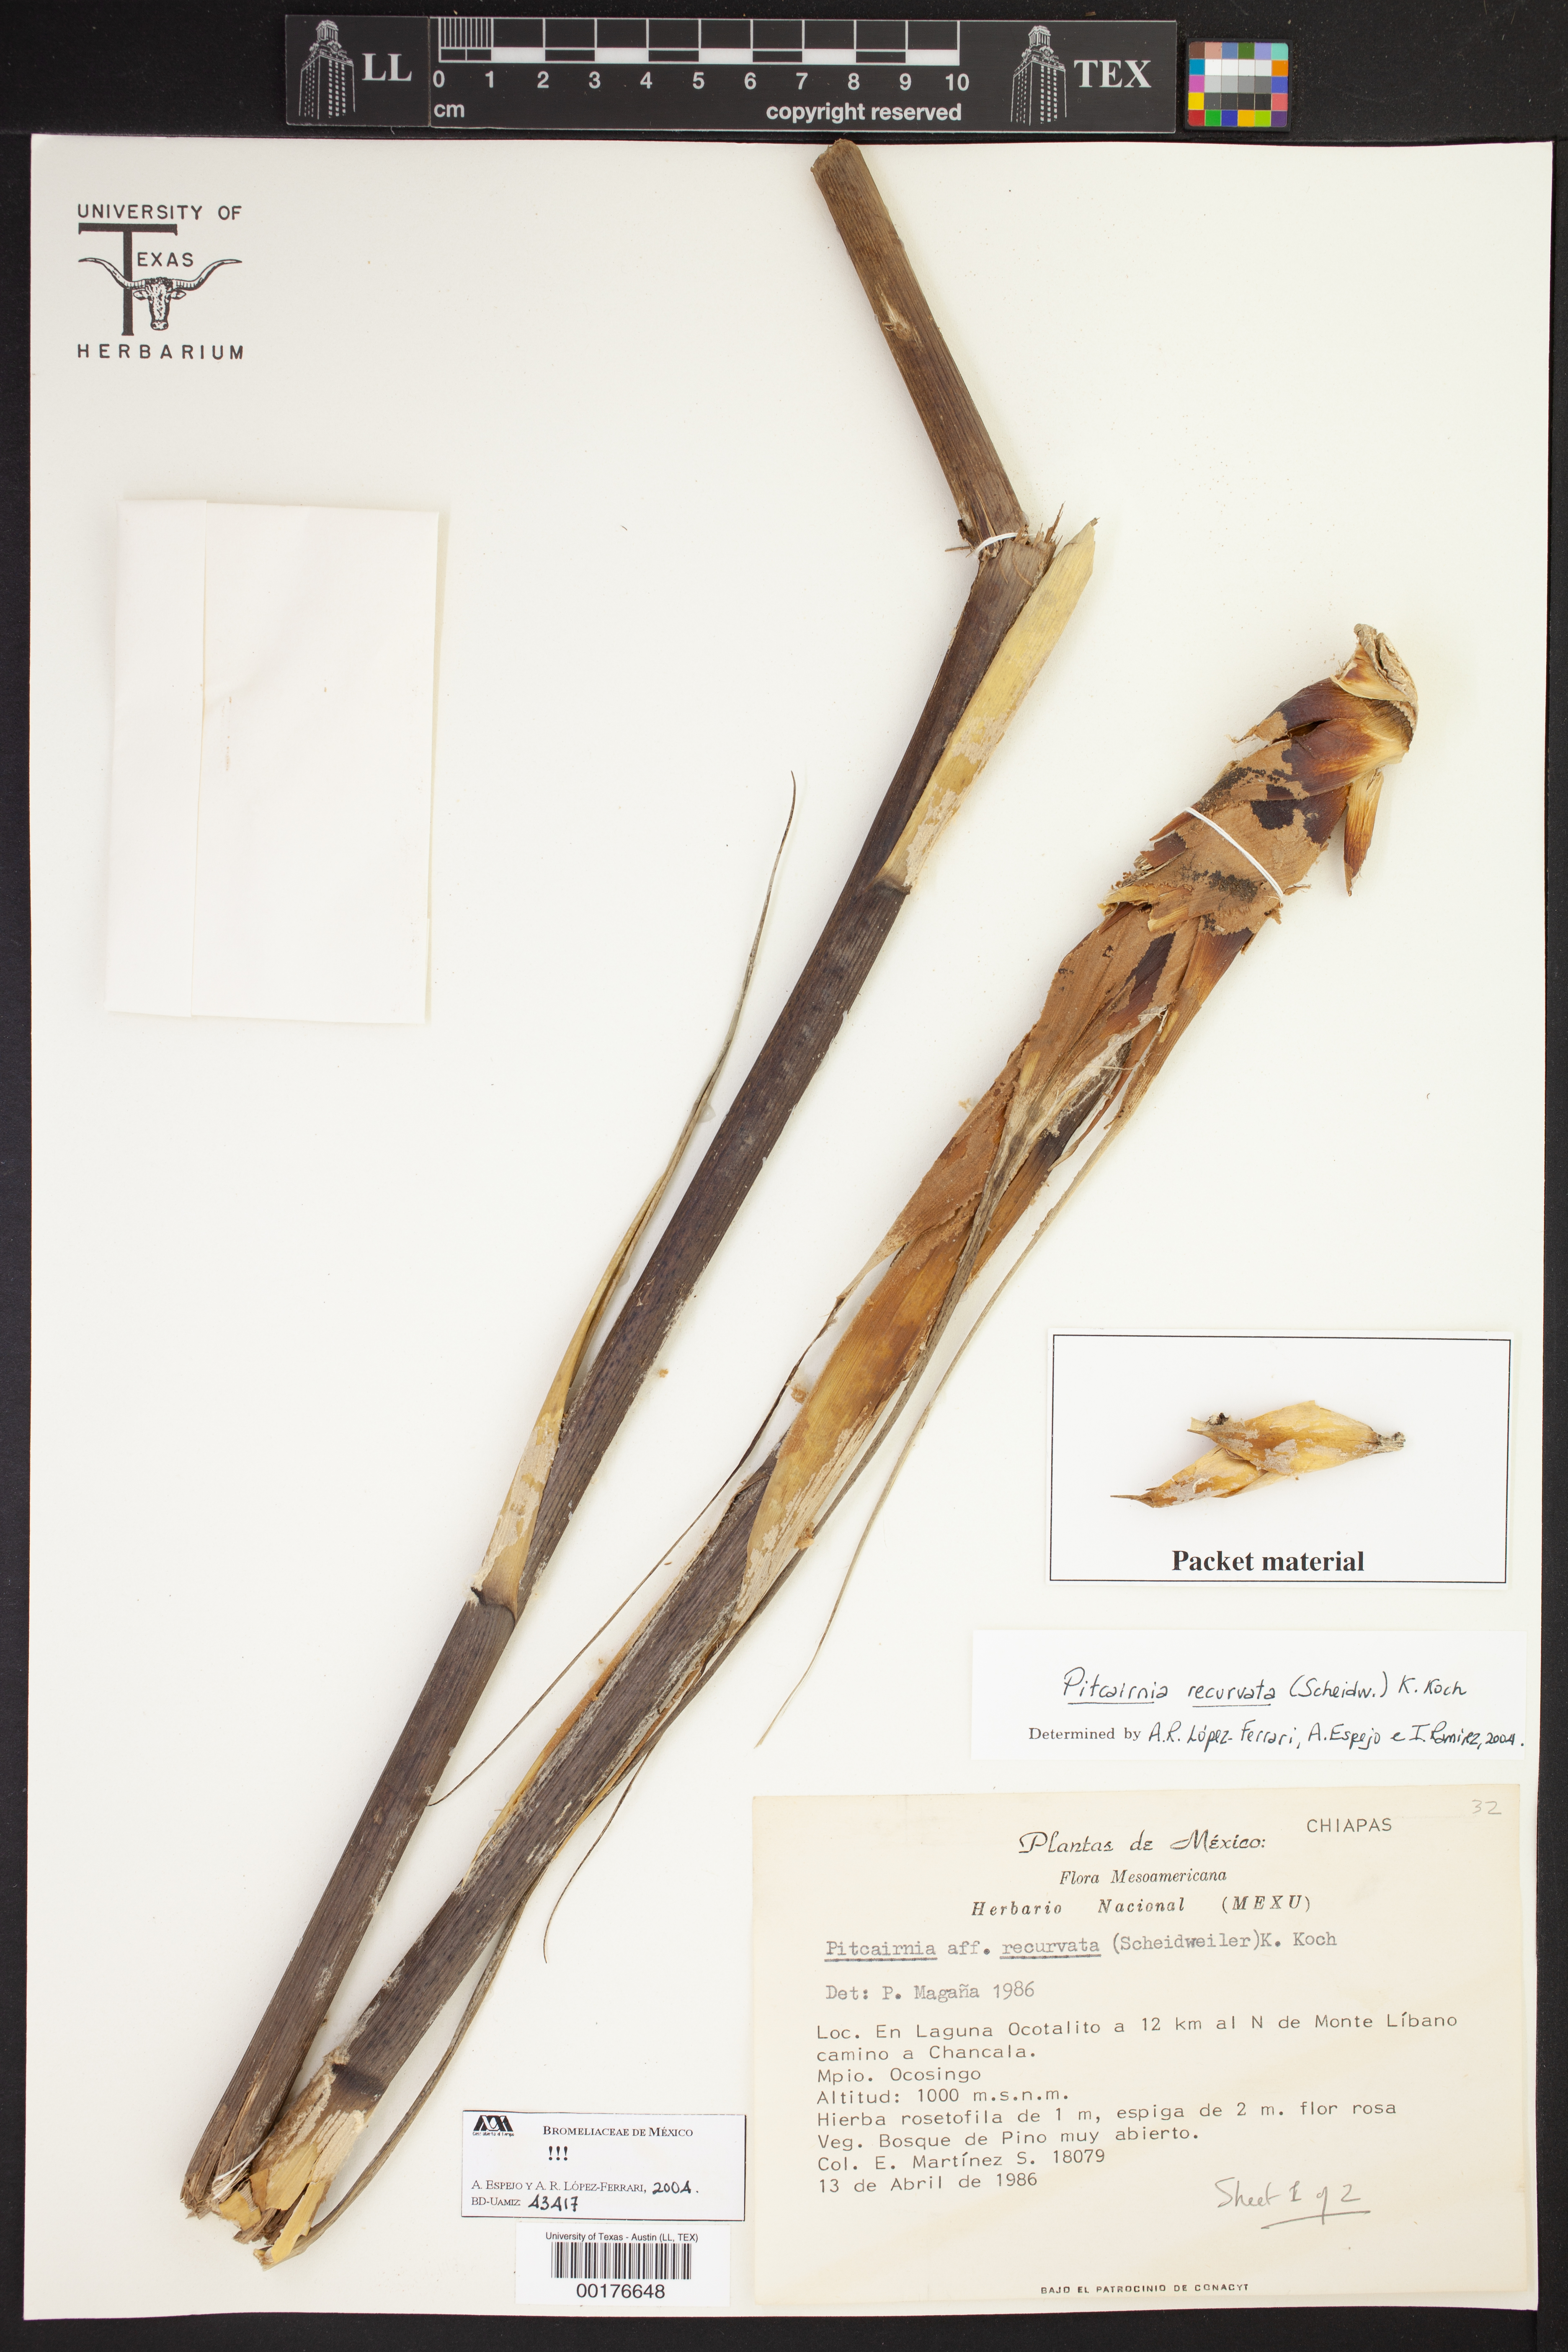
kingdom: Plantae
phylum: Tracheophyta
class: Liliopsida
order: Poales
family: Bromeliaceae
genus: Pitcairnia
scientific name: Pitcairnia recurvata
